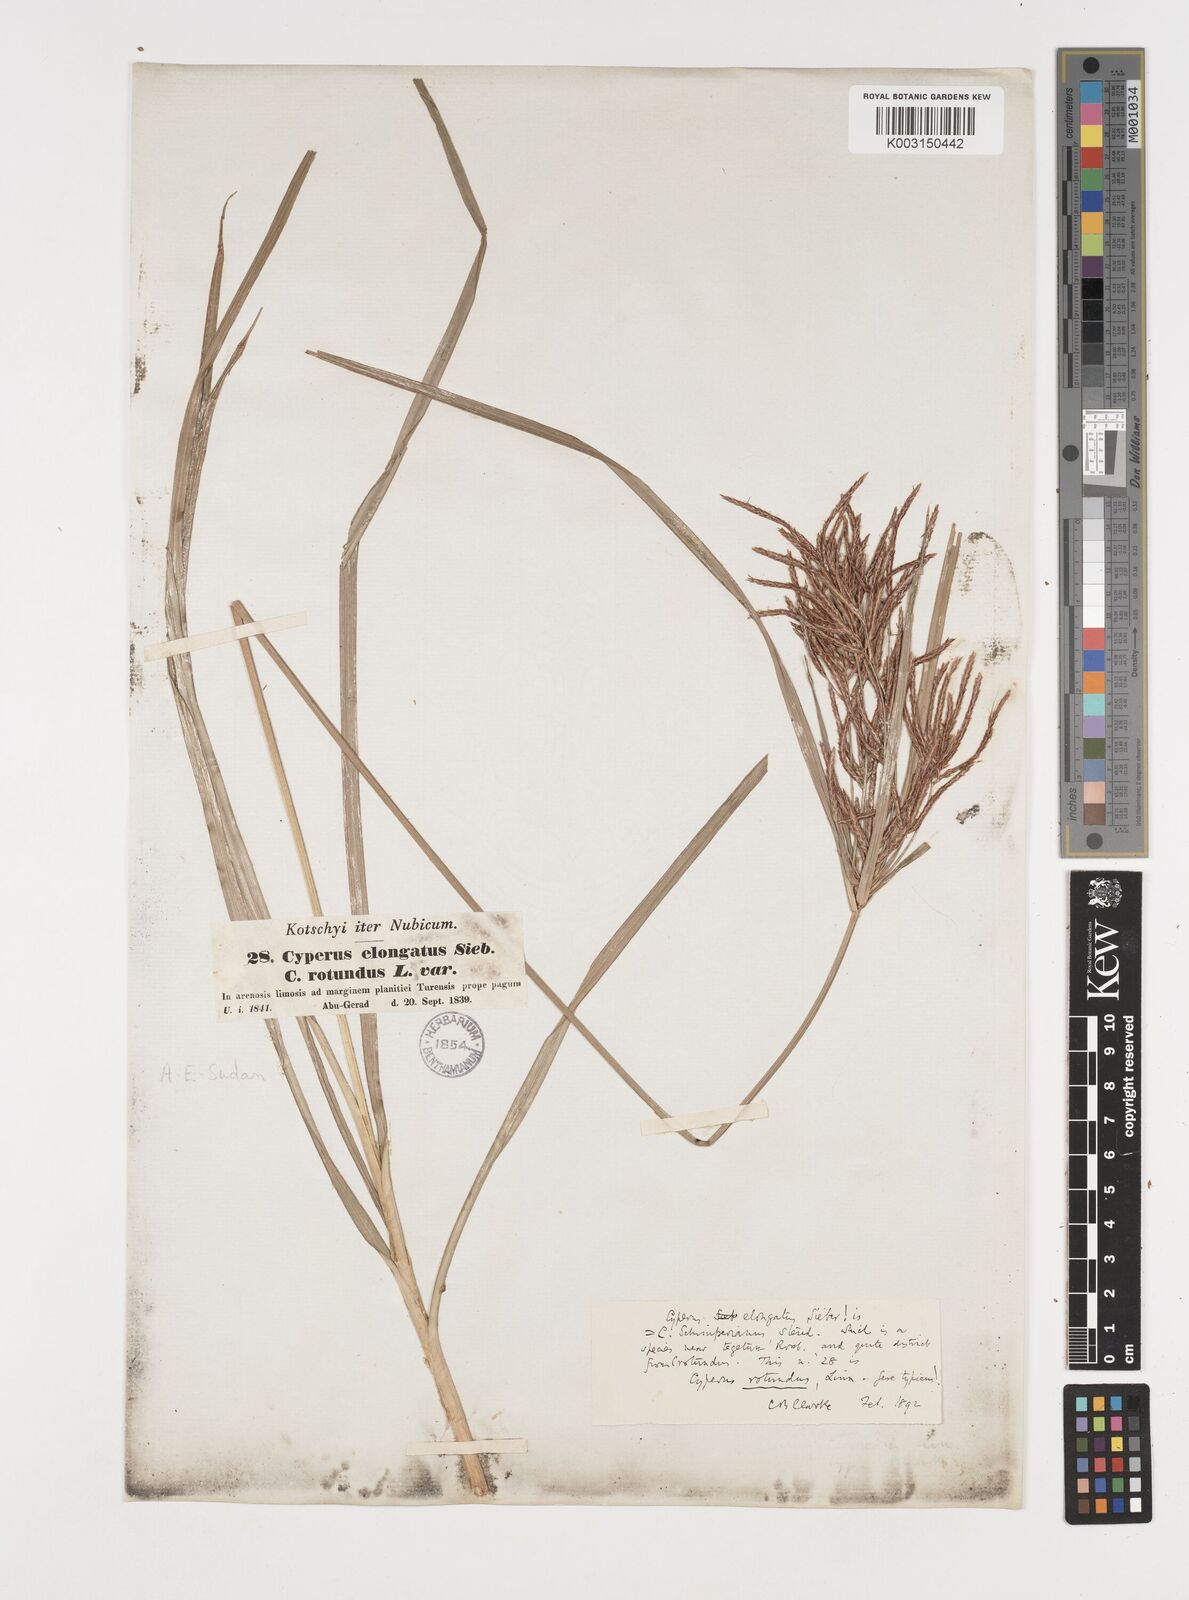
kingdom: Plantae
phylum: Tracheophyta
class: Liliopsida
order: Poales
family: Cyperaceae
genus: Cyperus
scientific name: Cyperus rotundus
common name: Nutgrass
